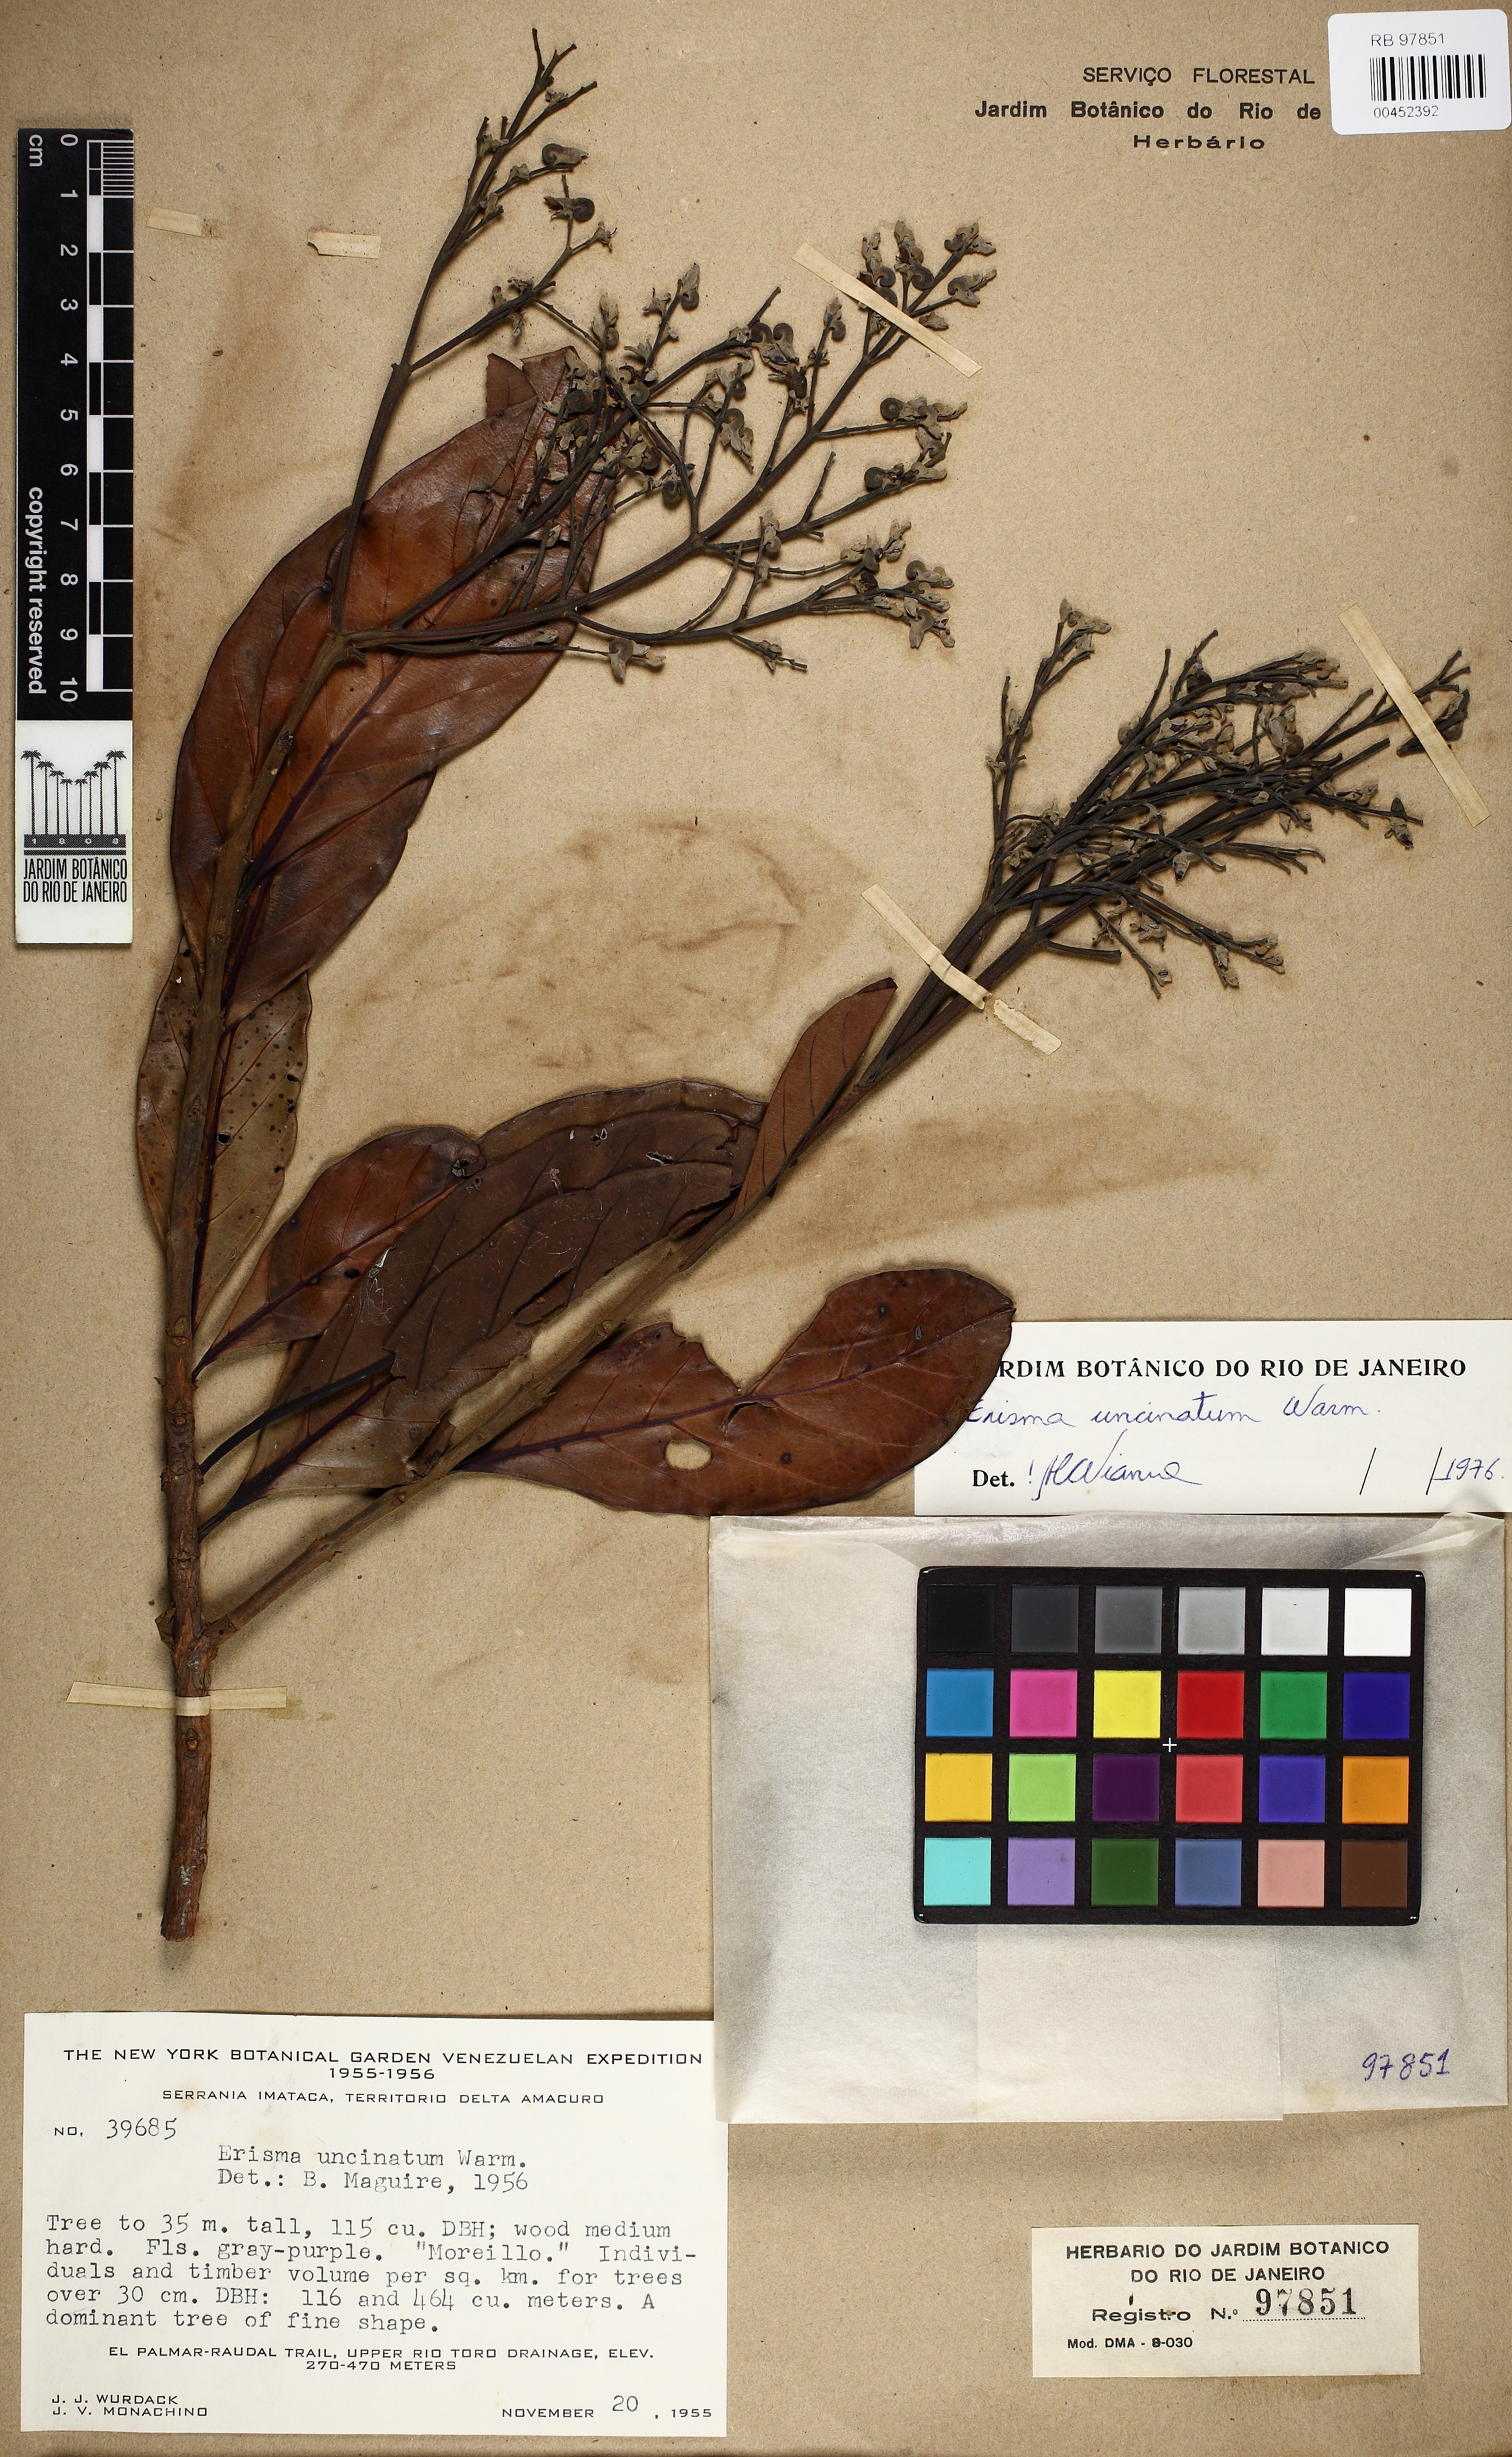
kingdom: Plantae
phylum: Tracheophyta
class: Magnoliopsida
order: Myrtales
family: Vochysiaceae
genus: Erisma
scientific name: Erisma uncinatum
